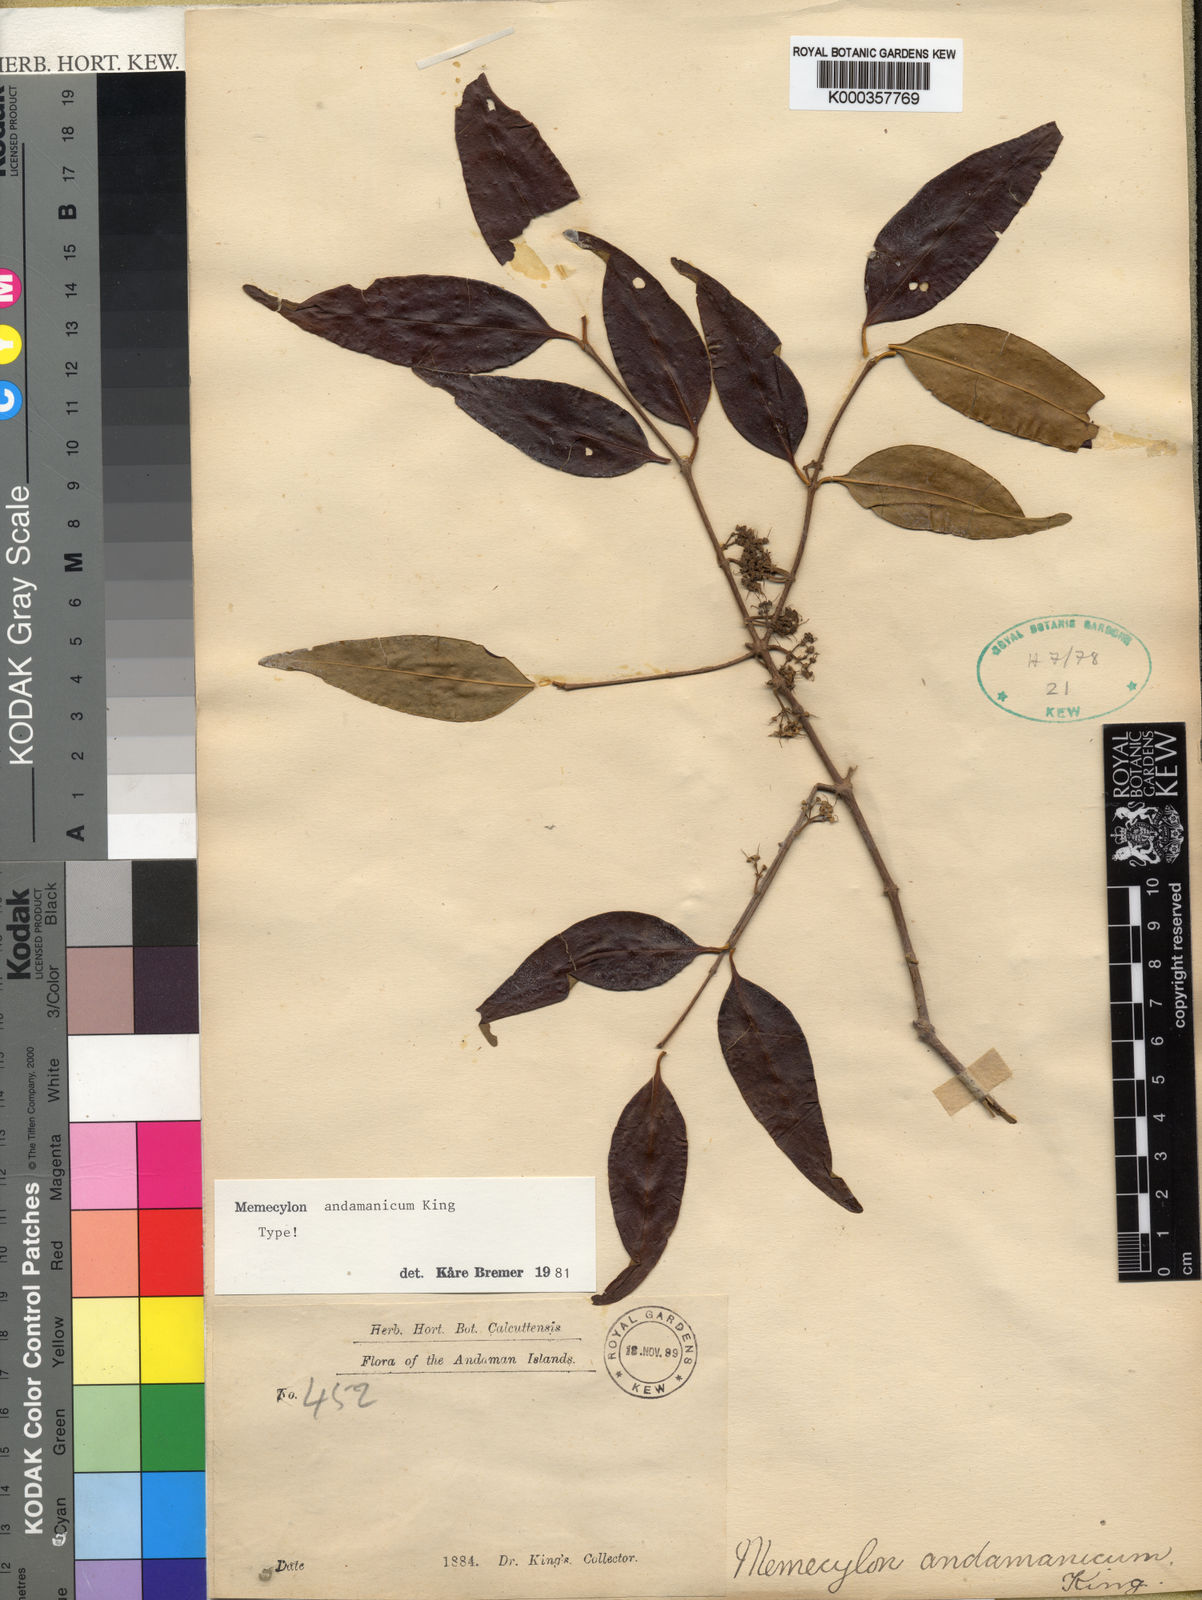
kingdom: Plantae
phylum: Tracheophyta
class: Magnoliopsida
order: Myrtales
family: Melastomataceae
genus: Memecylon
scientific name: Memecylon andamanicum
